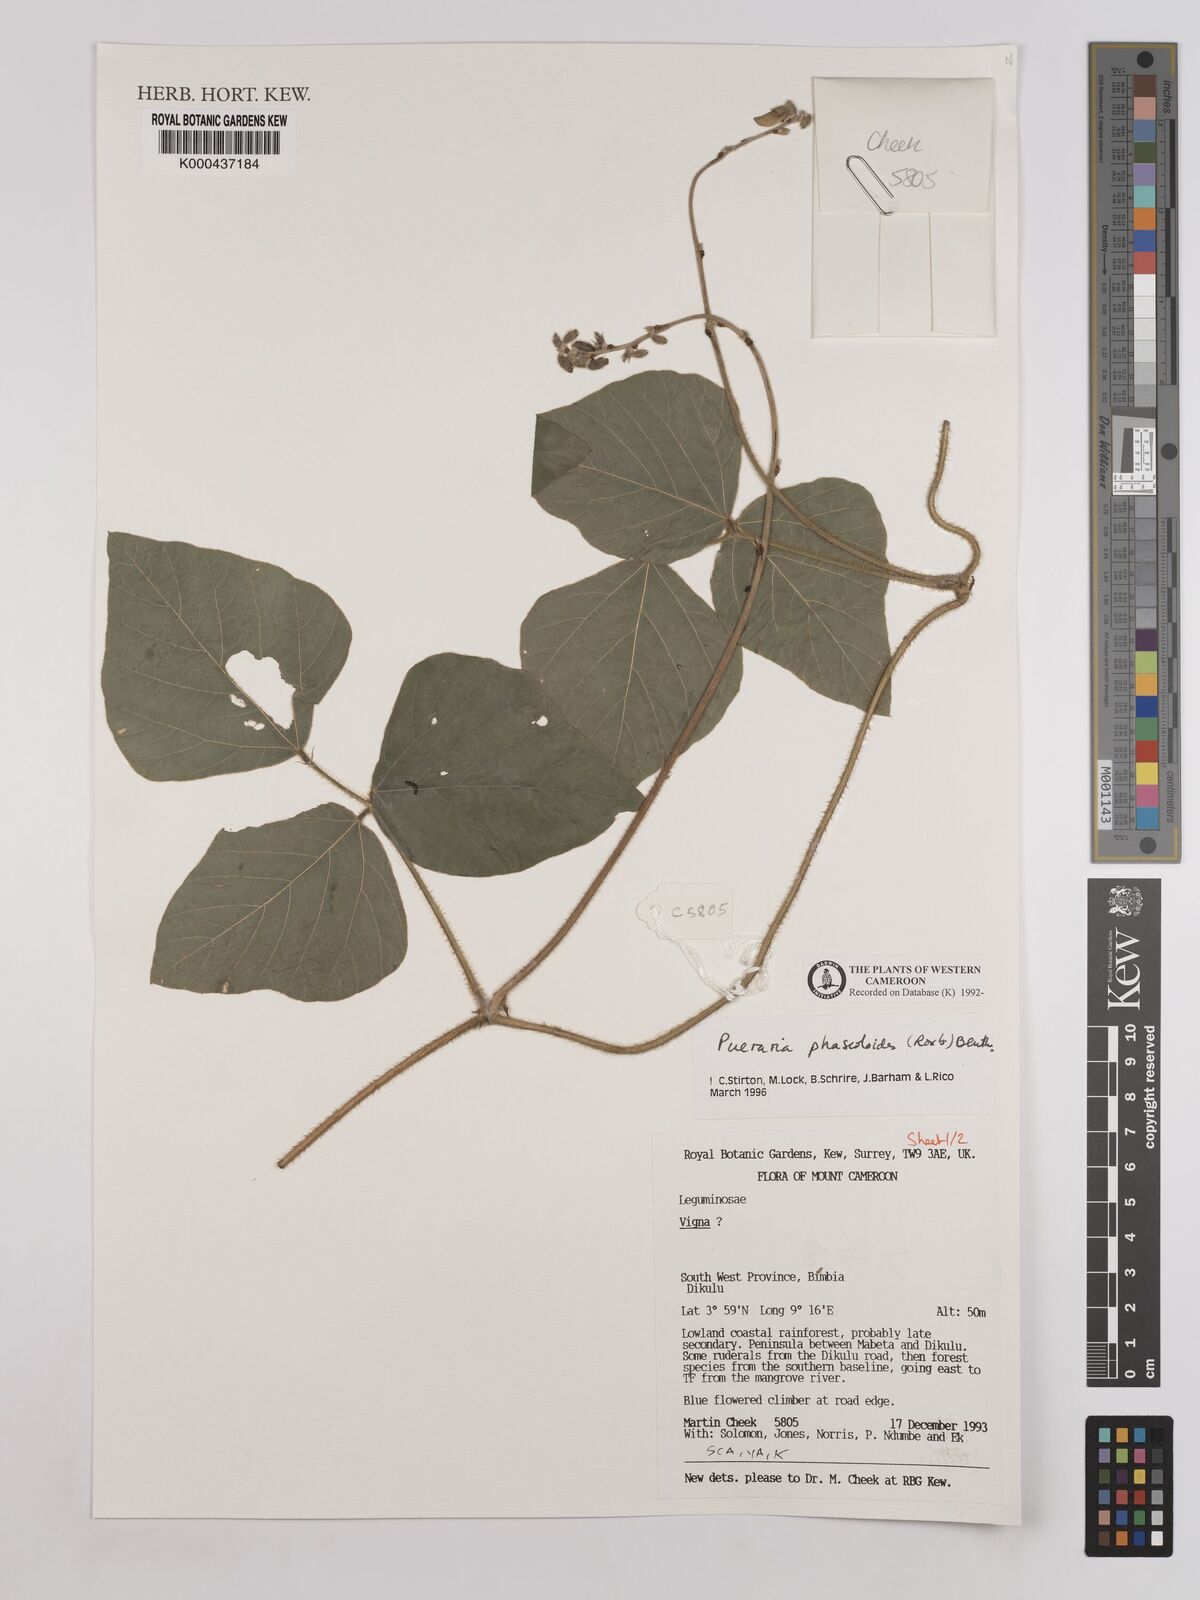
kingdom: Plantae
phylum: Tracheophyta
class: Magnoliopsida
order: Fabales
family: Fabaceae
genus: Neustanthus
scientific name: Neustanthus phaseoloides
